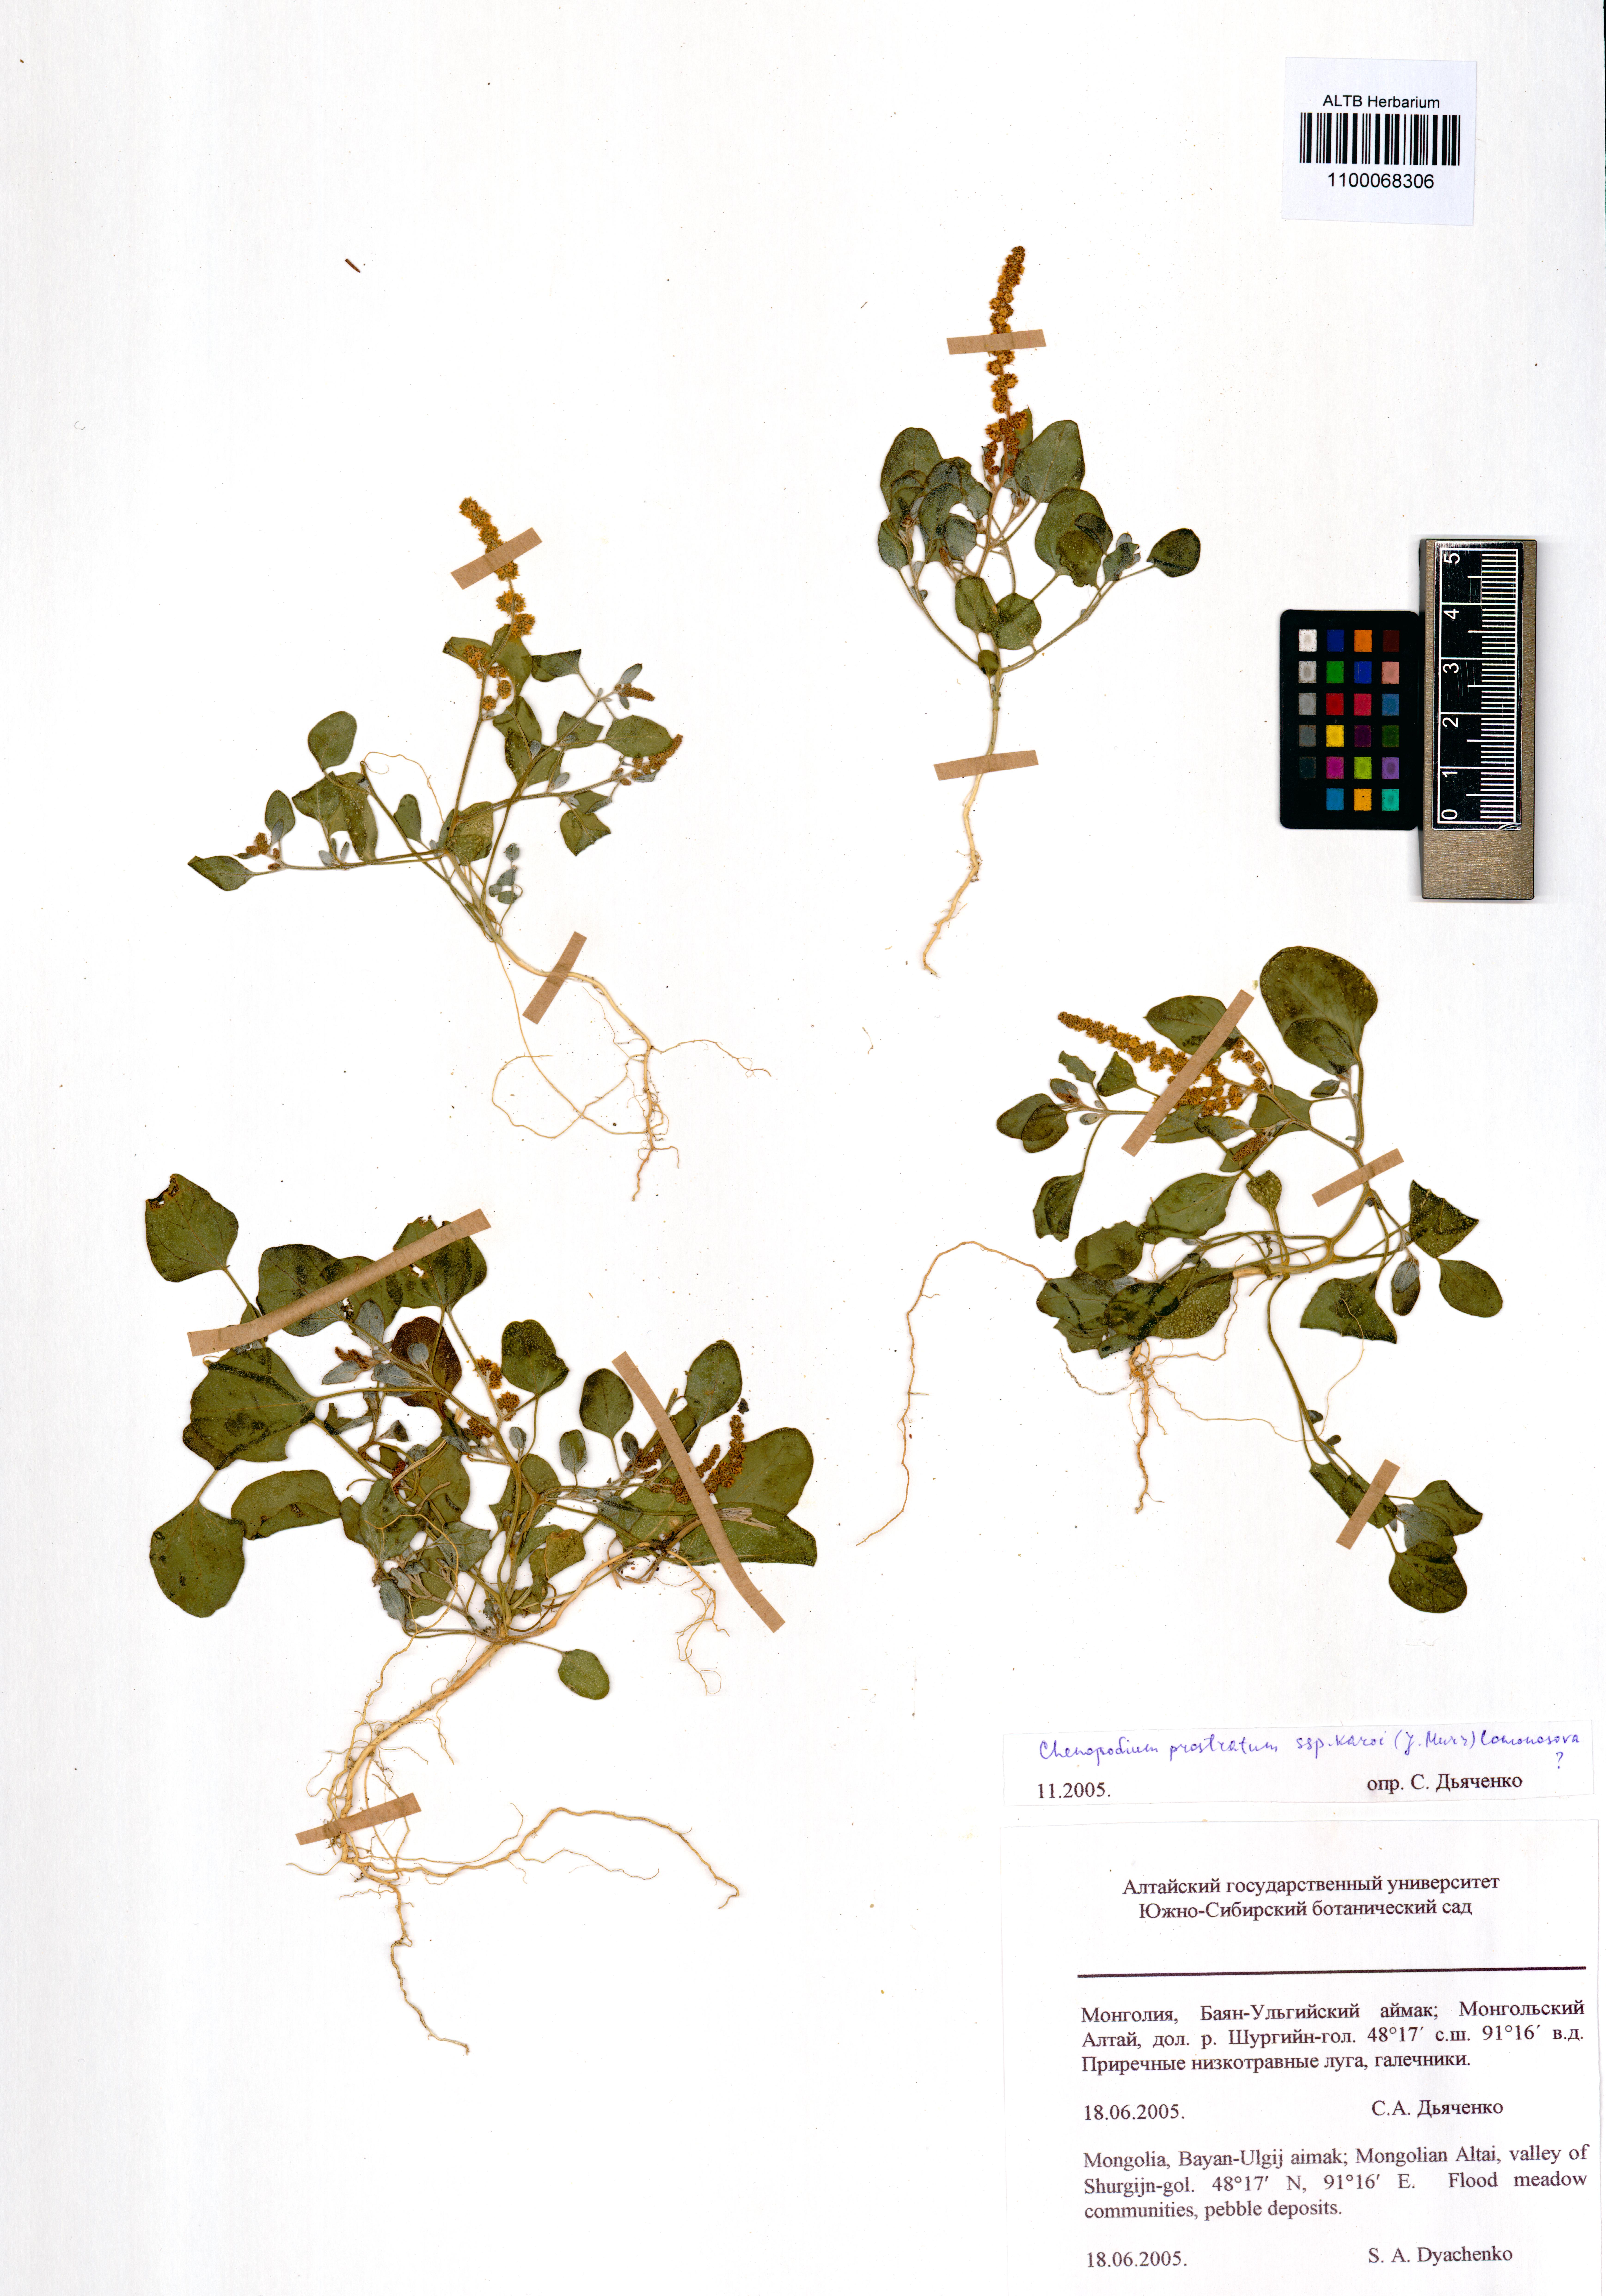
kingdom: Plantae
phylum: Tracheophyta
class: Magnoliopsida
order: Caryophyllales
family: Amaranthaceae
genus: Chenopodium
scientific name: Chenopodium karoi
